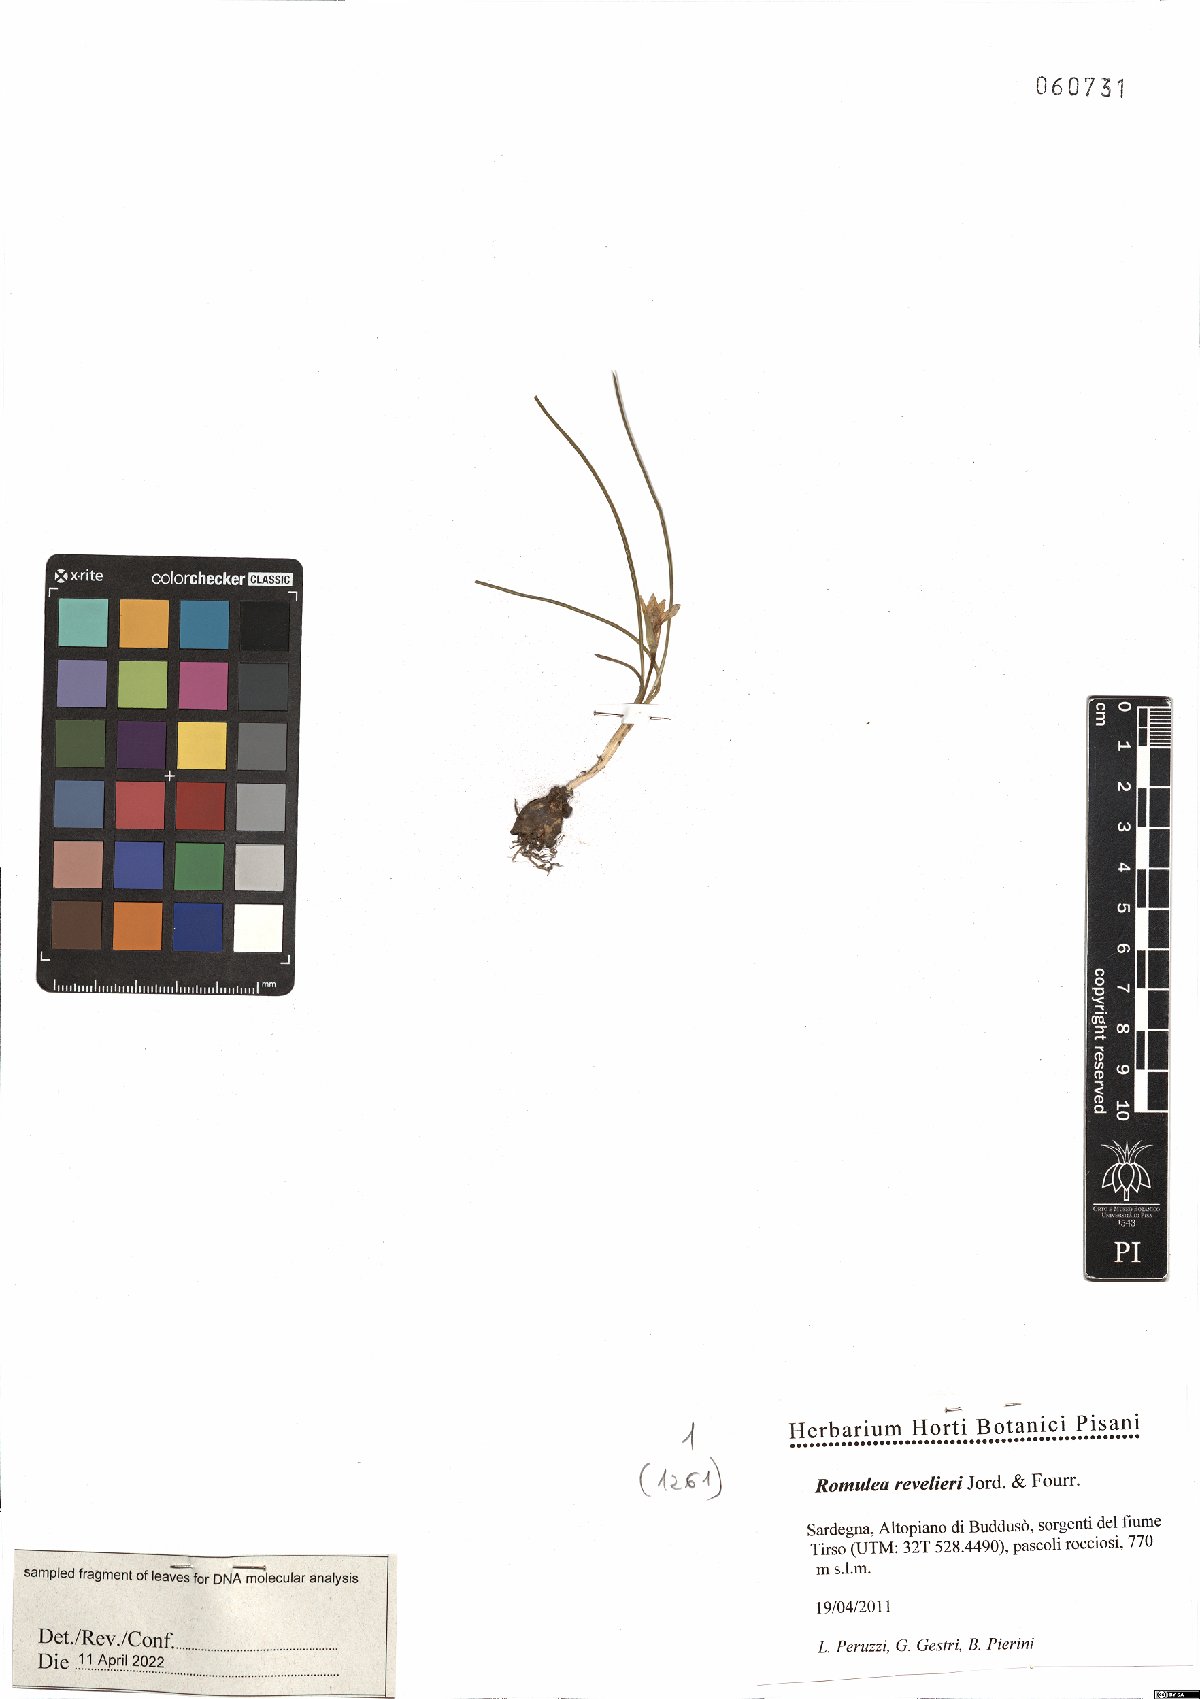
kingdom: Plantae
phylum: Tracheophyta
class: Liliopsida
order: Asparagales
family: Iridaceae
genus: Romulea
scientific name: Romulea revelierei
